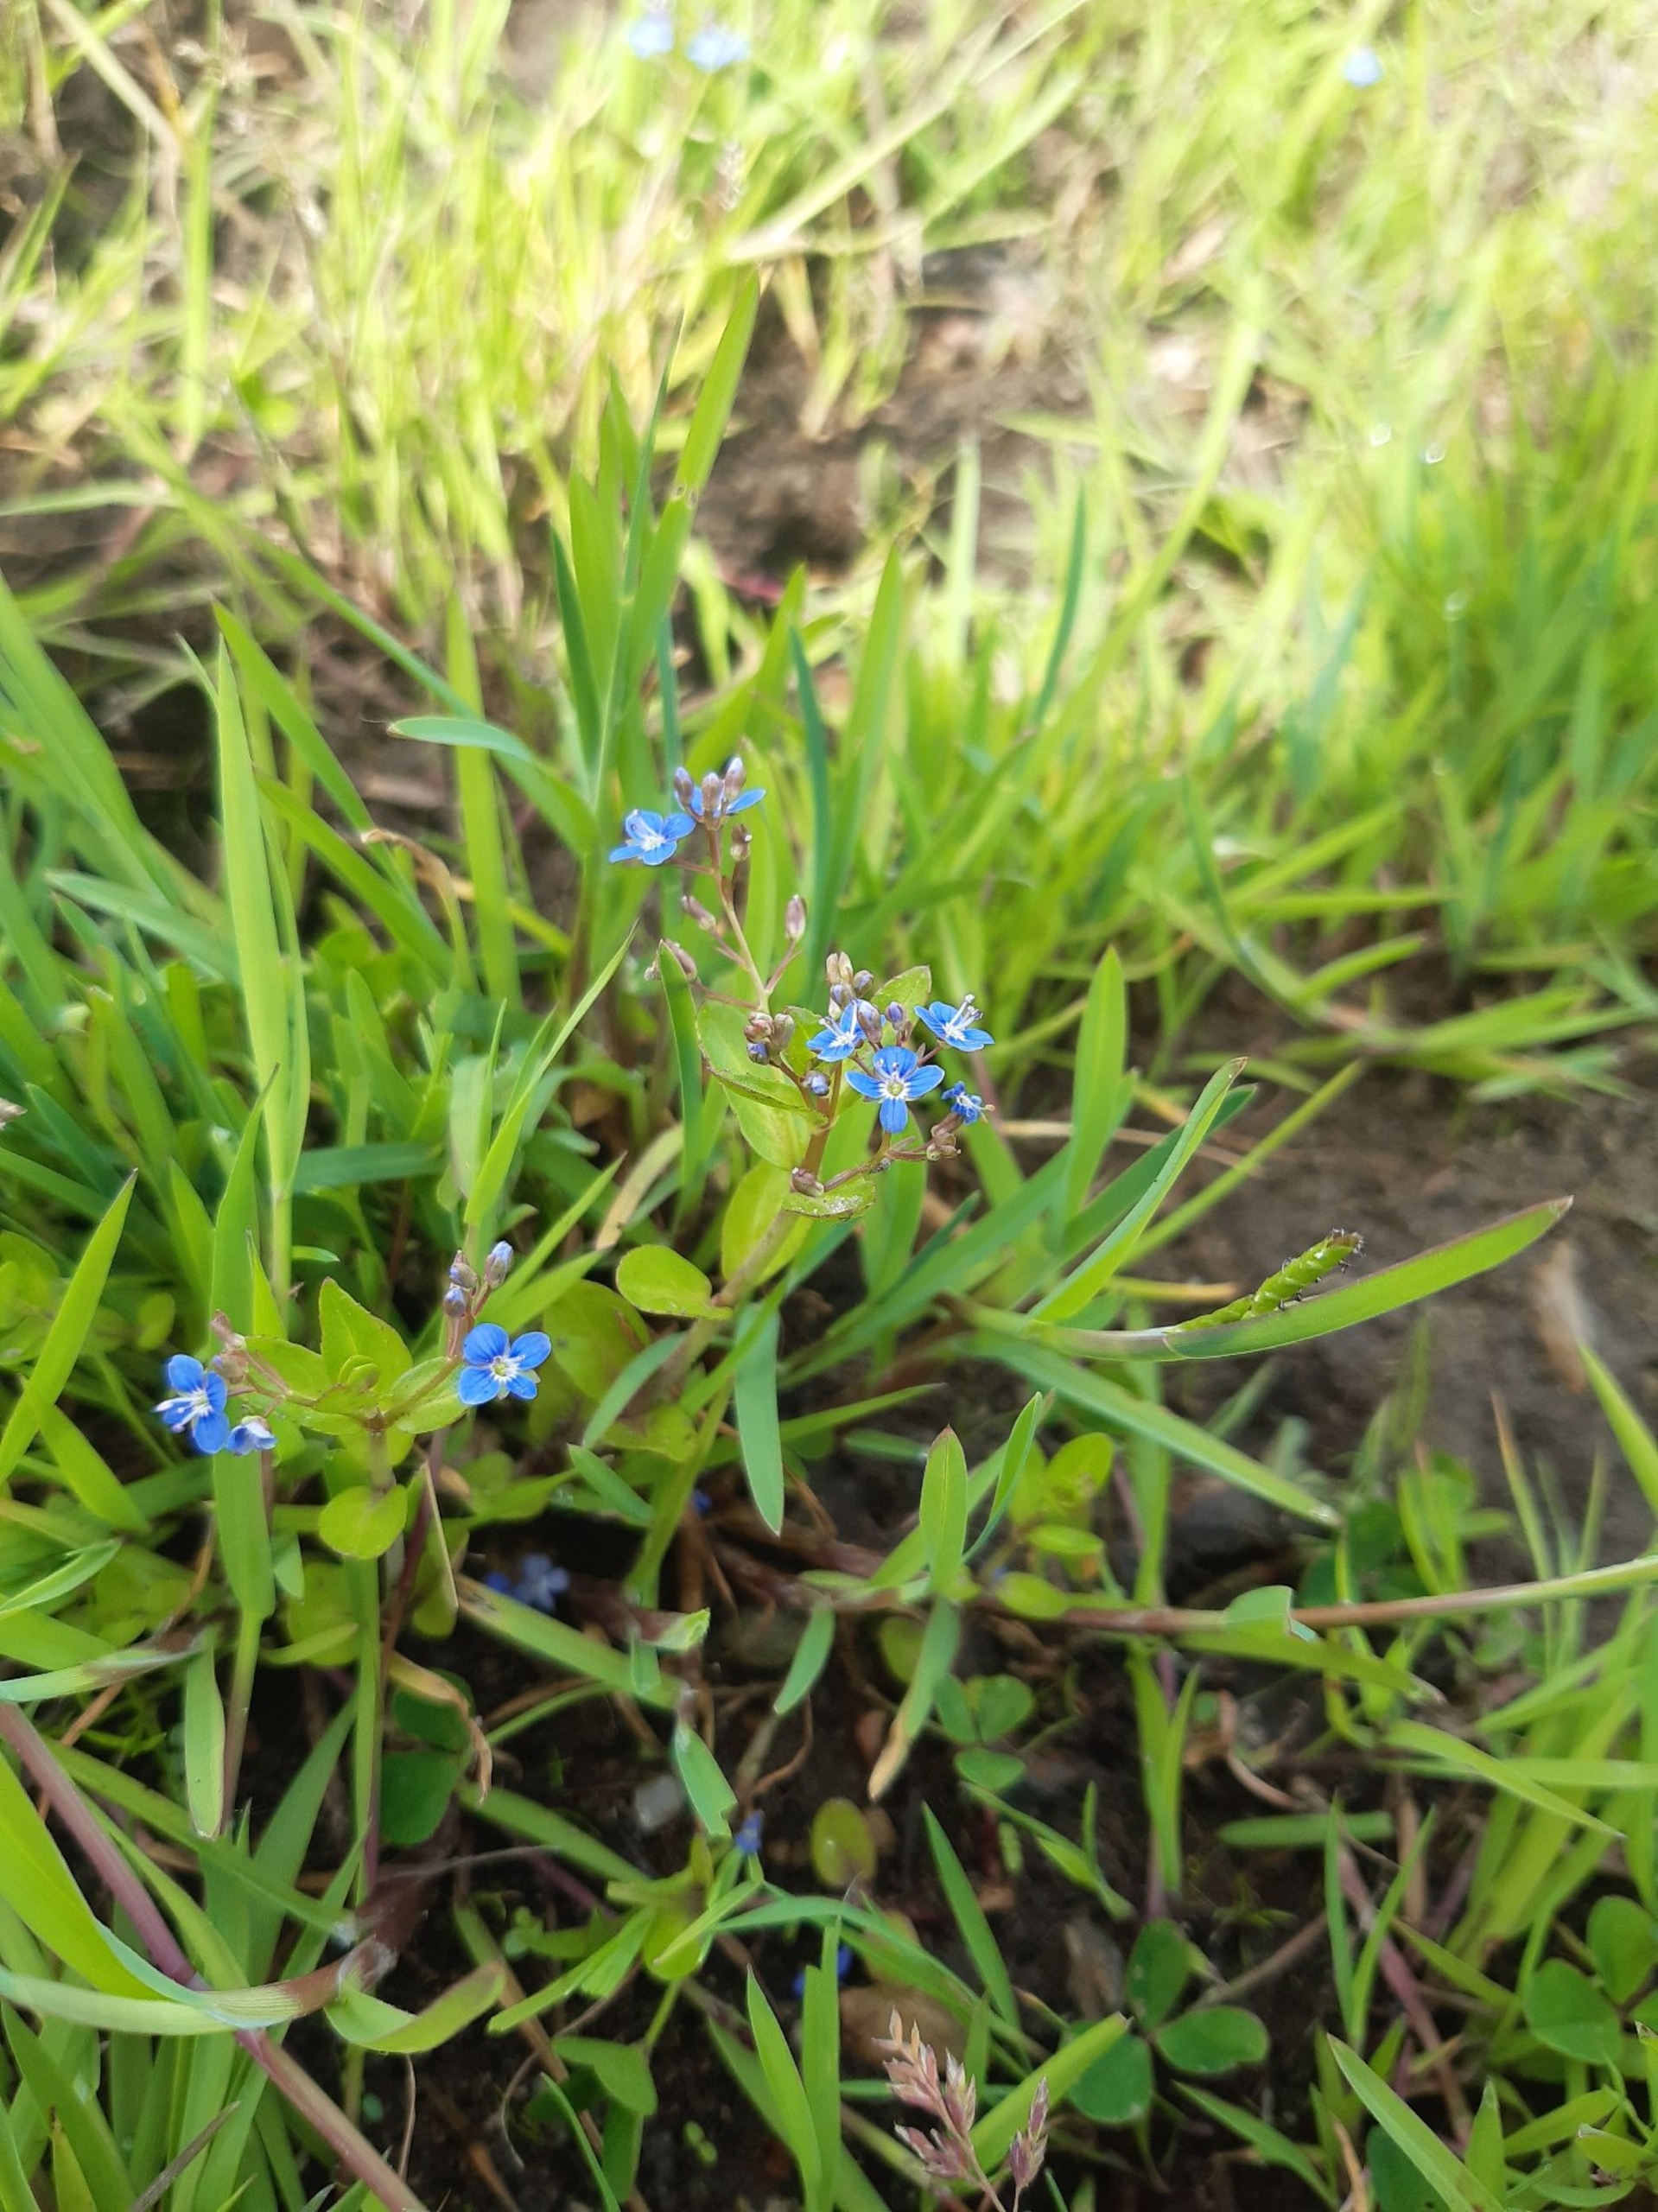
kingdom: Plantae
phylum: Tracheophyta
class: Magnoliopsida
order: Lamiales
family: Plantaginaceae
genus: Veronica
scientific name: Veronica beccabunga
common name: Tykbladet ærenpris
